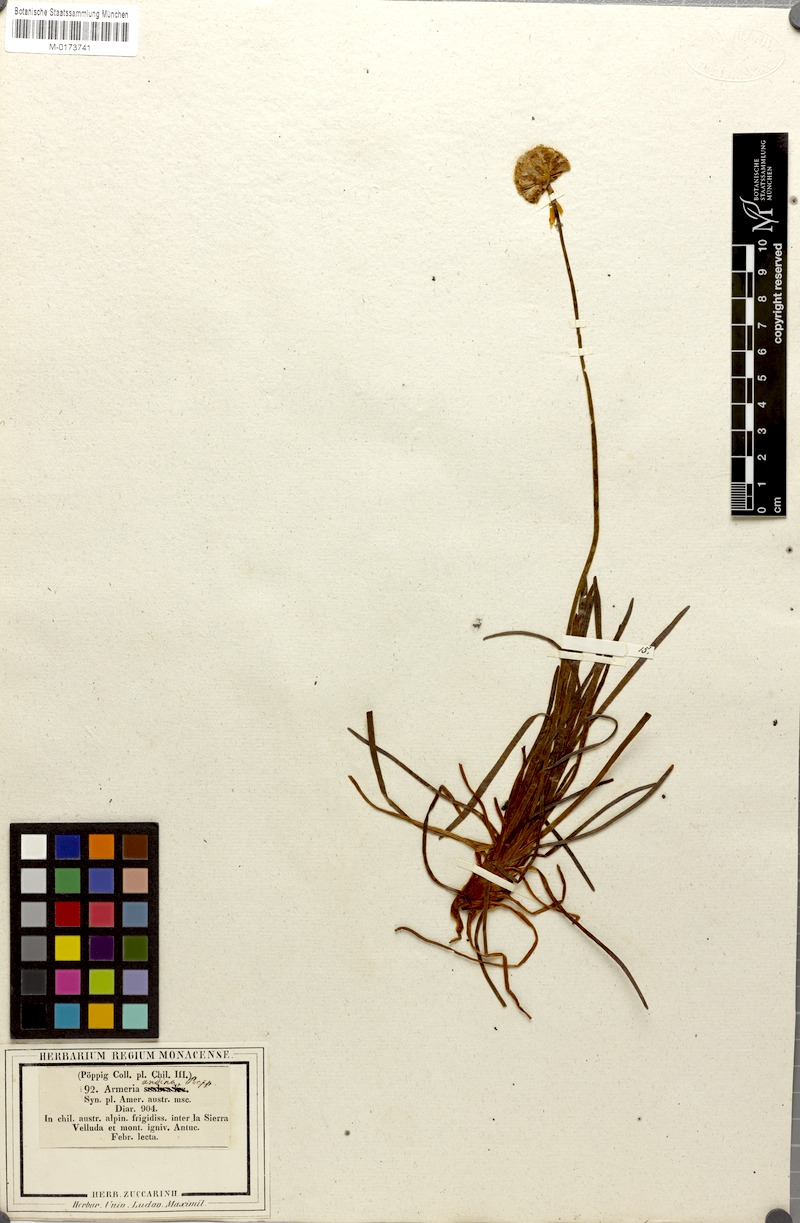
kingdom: Plantae
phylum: Tracheophyta
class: Magnoliopsida
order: Caryophyllales
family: Plumbaginaceae
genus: Armeria
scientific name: Armeria curvifolia
